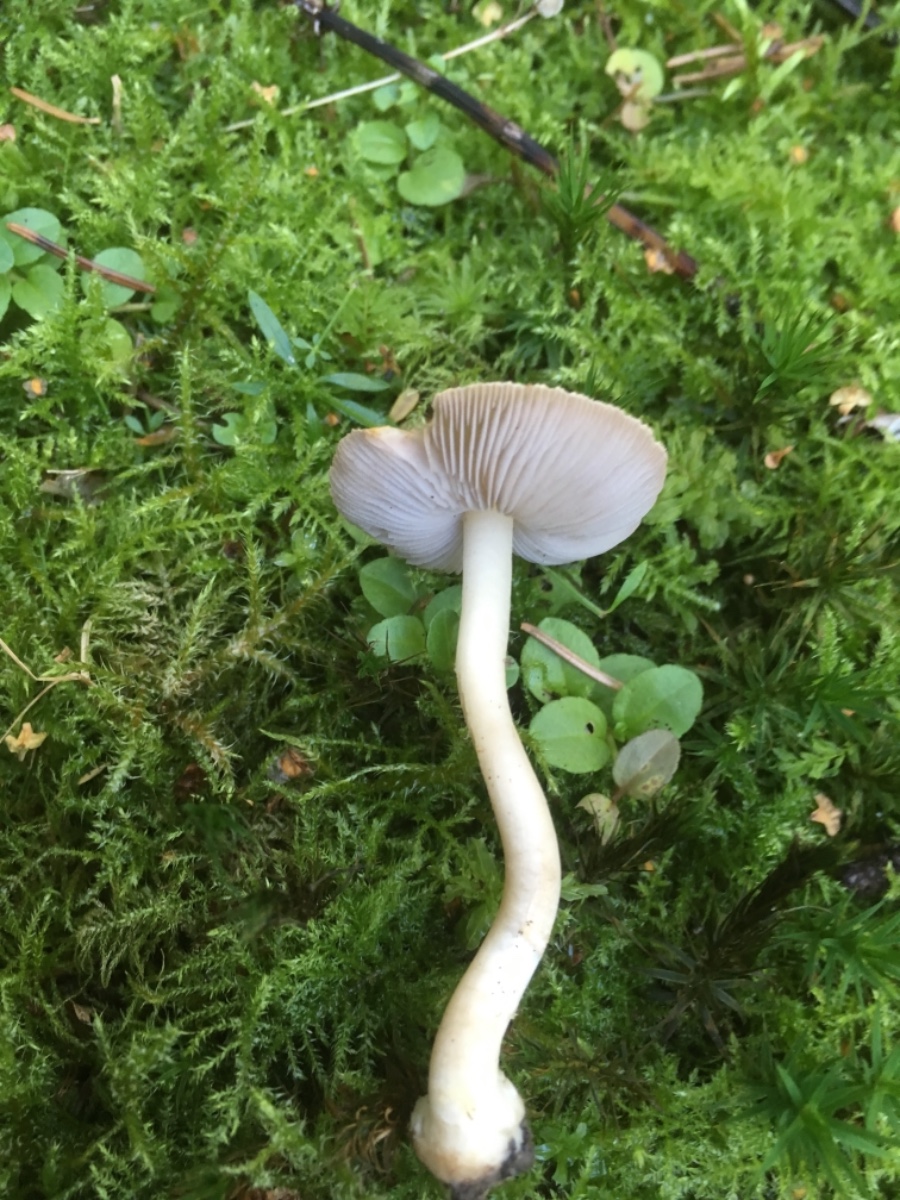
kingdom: Fungi
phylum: Basidiomycota
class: Agaricomycetes
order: Agaricales
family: Inocybaceae
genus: Inocybe
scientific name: Inocybe
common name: trævlhat
